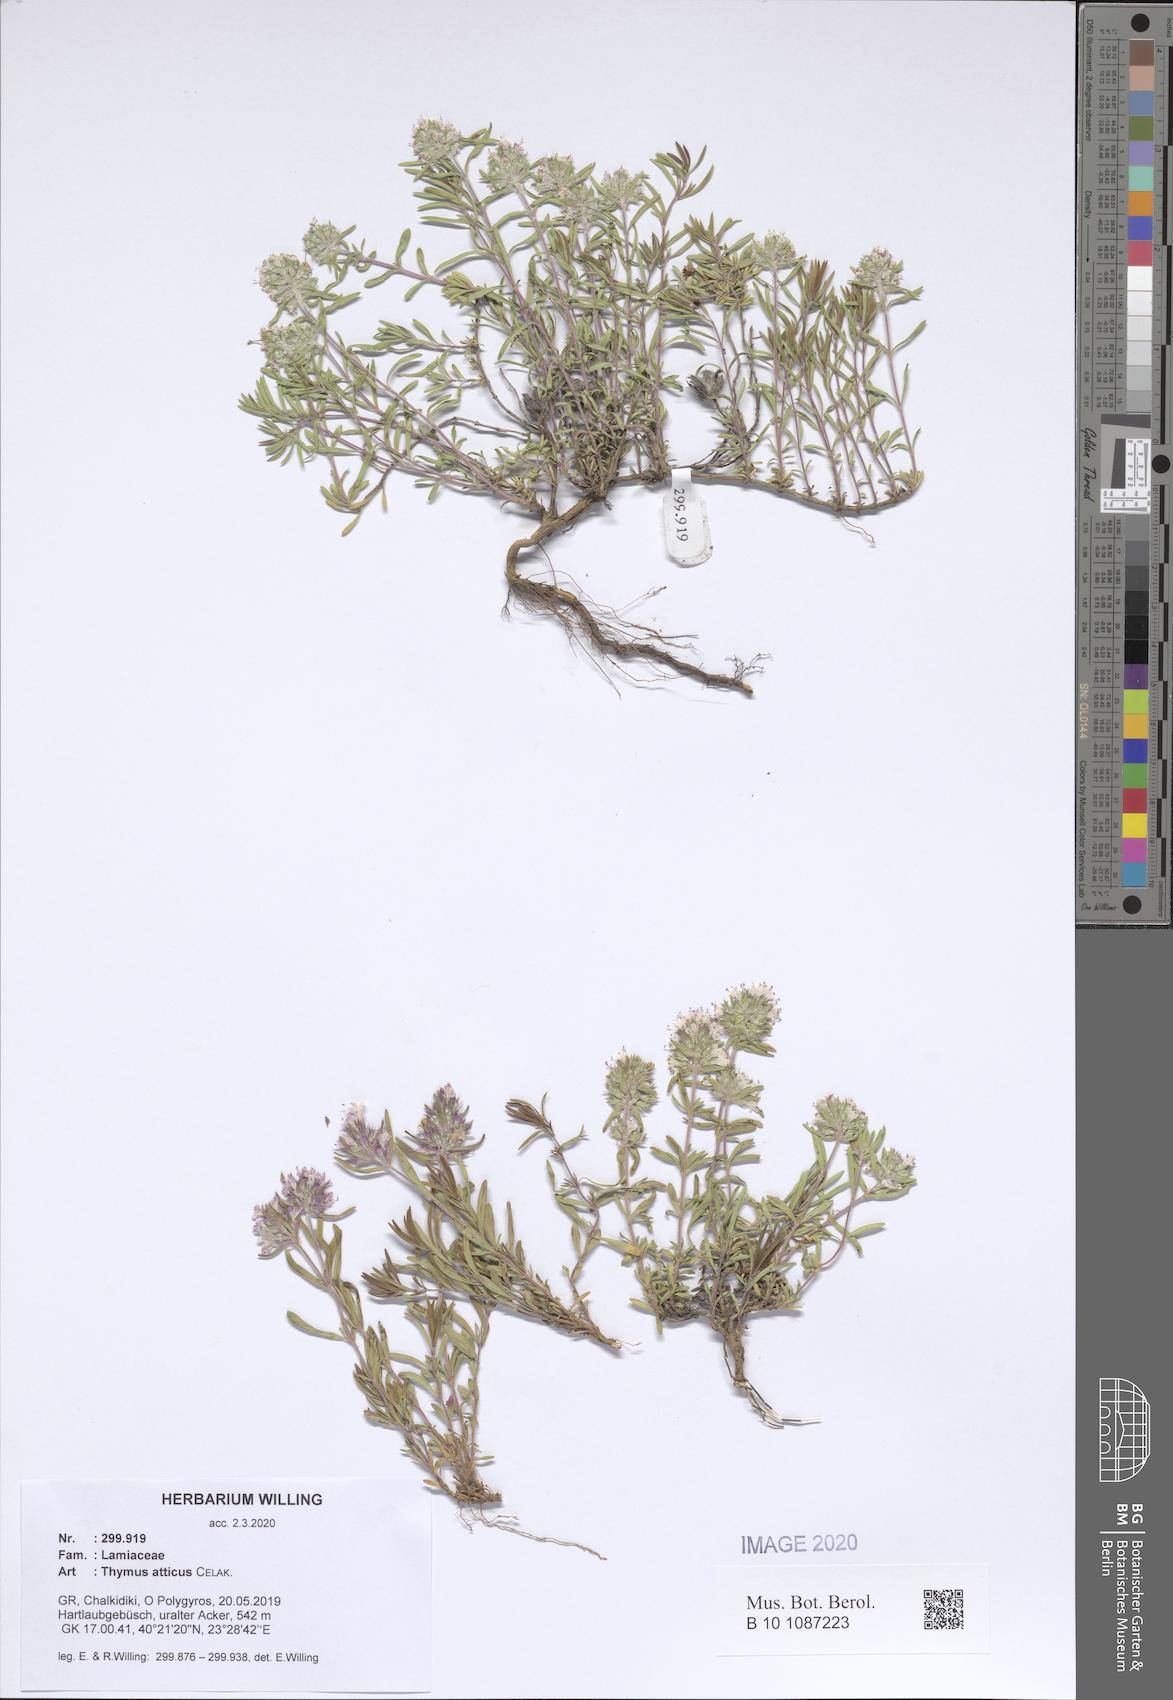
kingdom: Plantae
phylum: Tracheophyta
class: Magnoliopsida
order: Lamiales
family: Lamiaceae
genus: Thymus
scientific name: Thymus atticus
